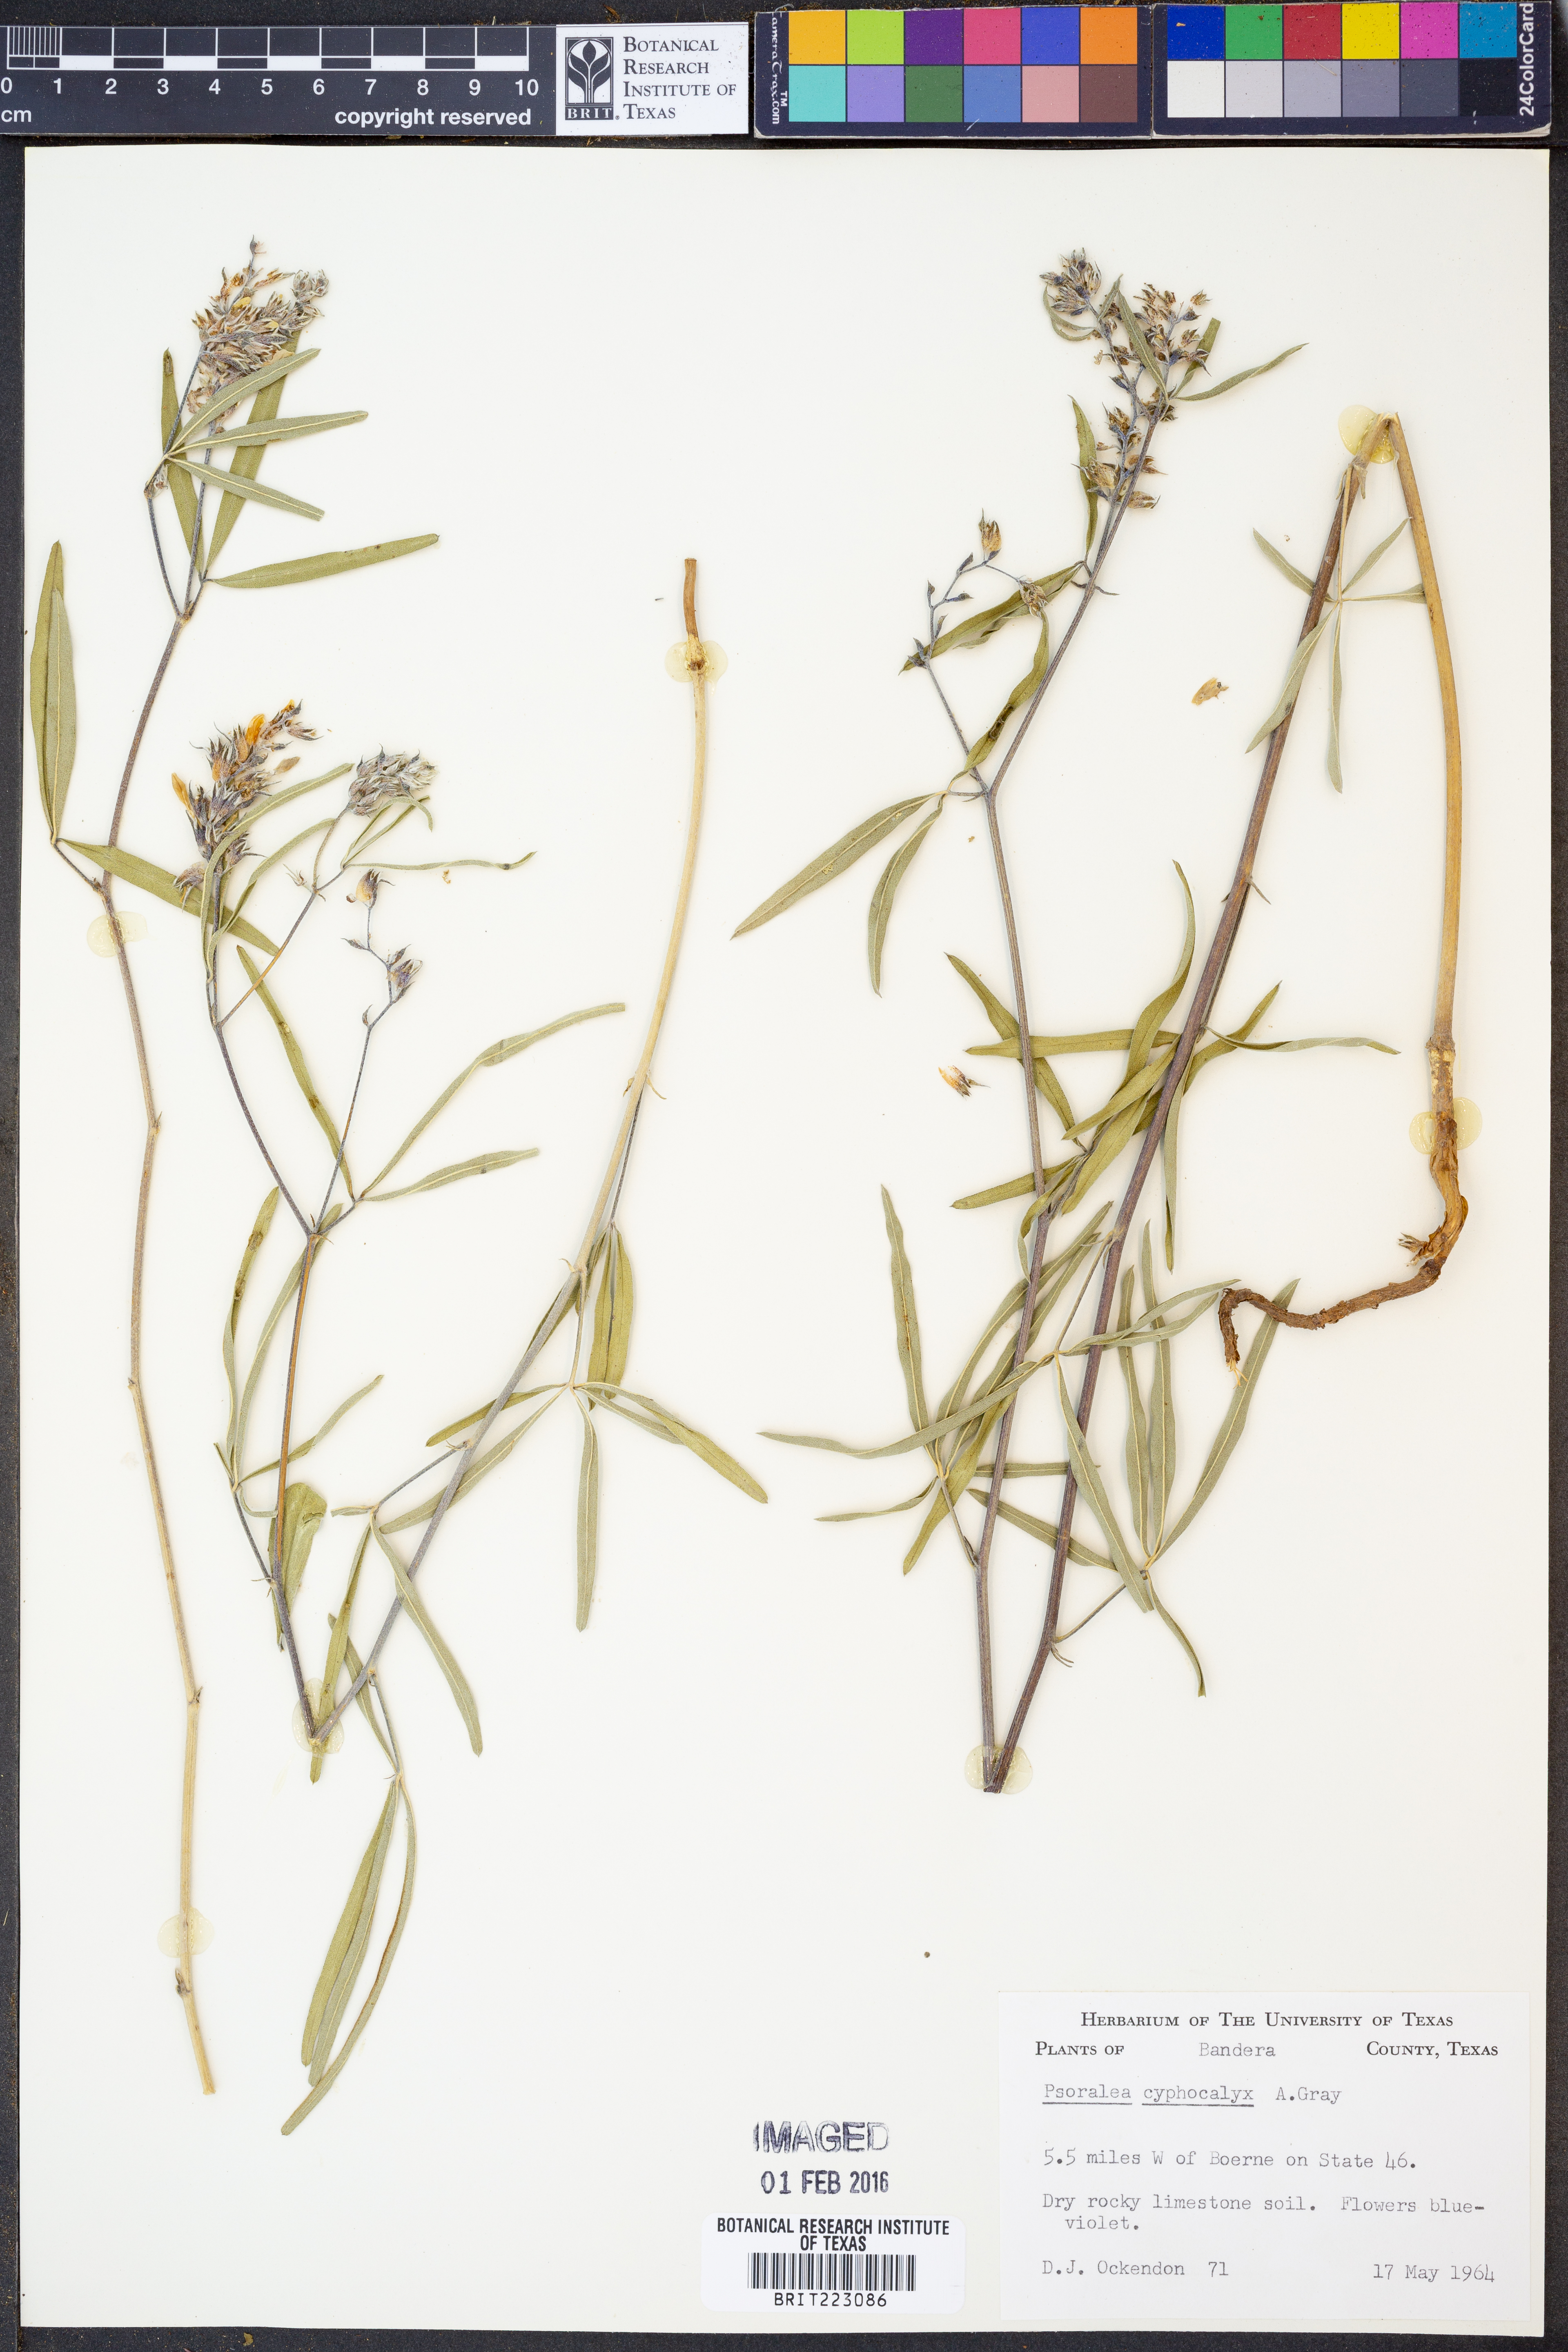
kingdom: Plantae
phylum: Tracheophyta
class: Magnoliopsida
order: Fabales
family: Fabaceae
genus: Pediomelum
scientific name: Pediomelum cyphocalyx
